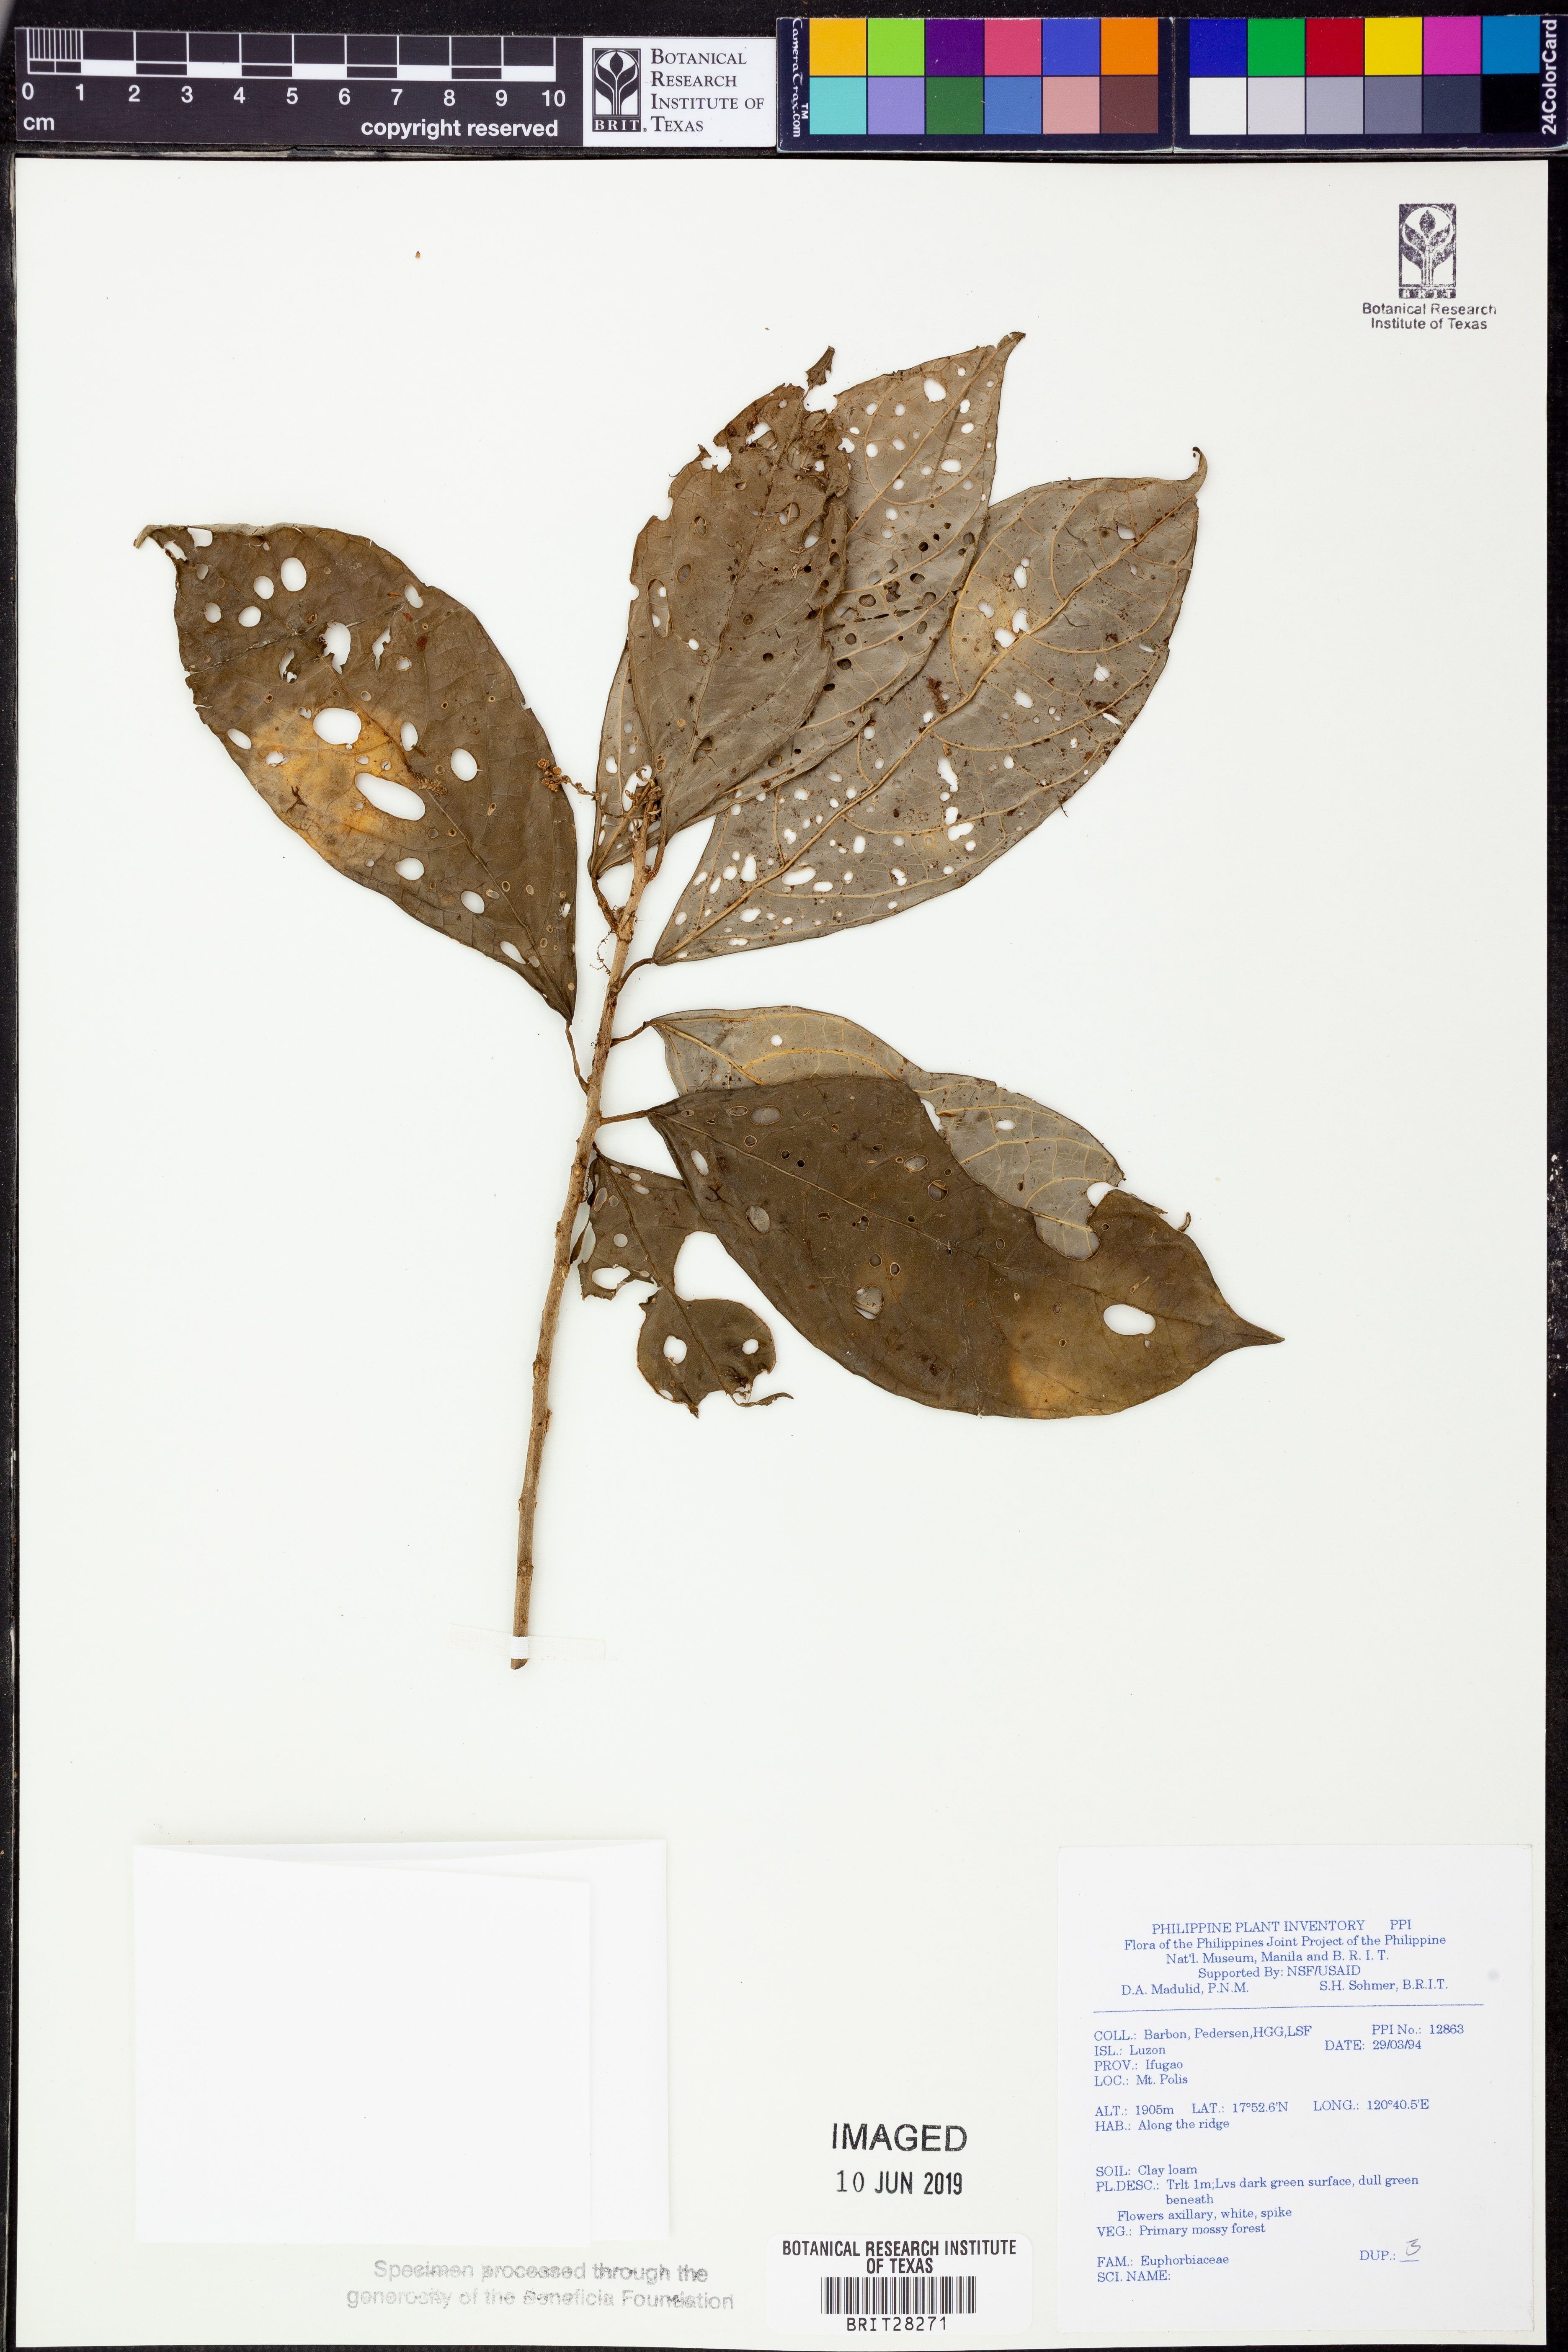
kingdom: Plantae
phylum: Tracheophyta
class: Magnoliopsida
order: Malpighiales
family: Euphorbiaceae
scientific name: Euphorbiaceae
